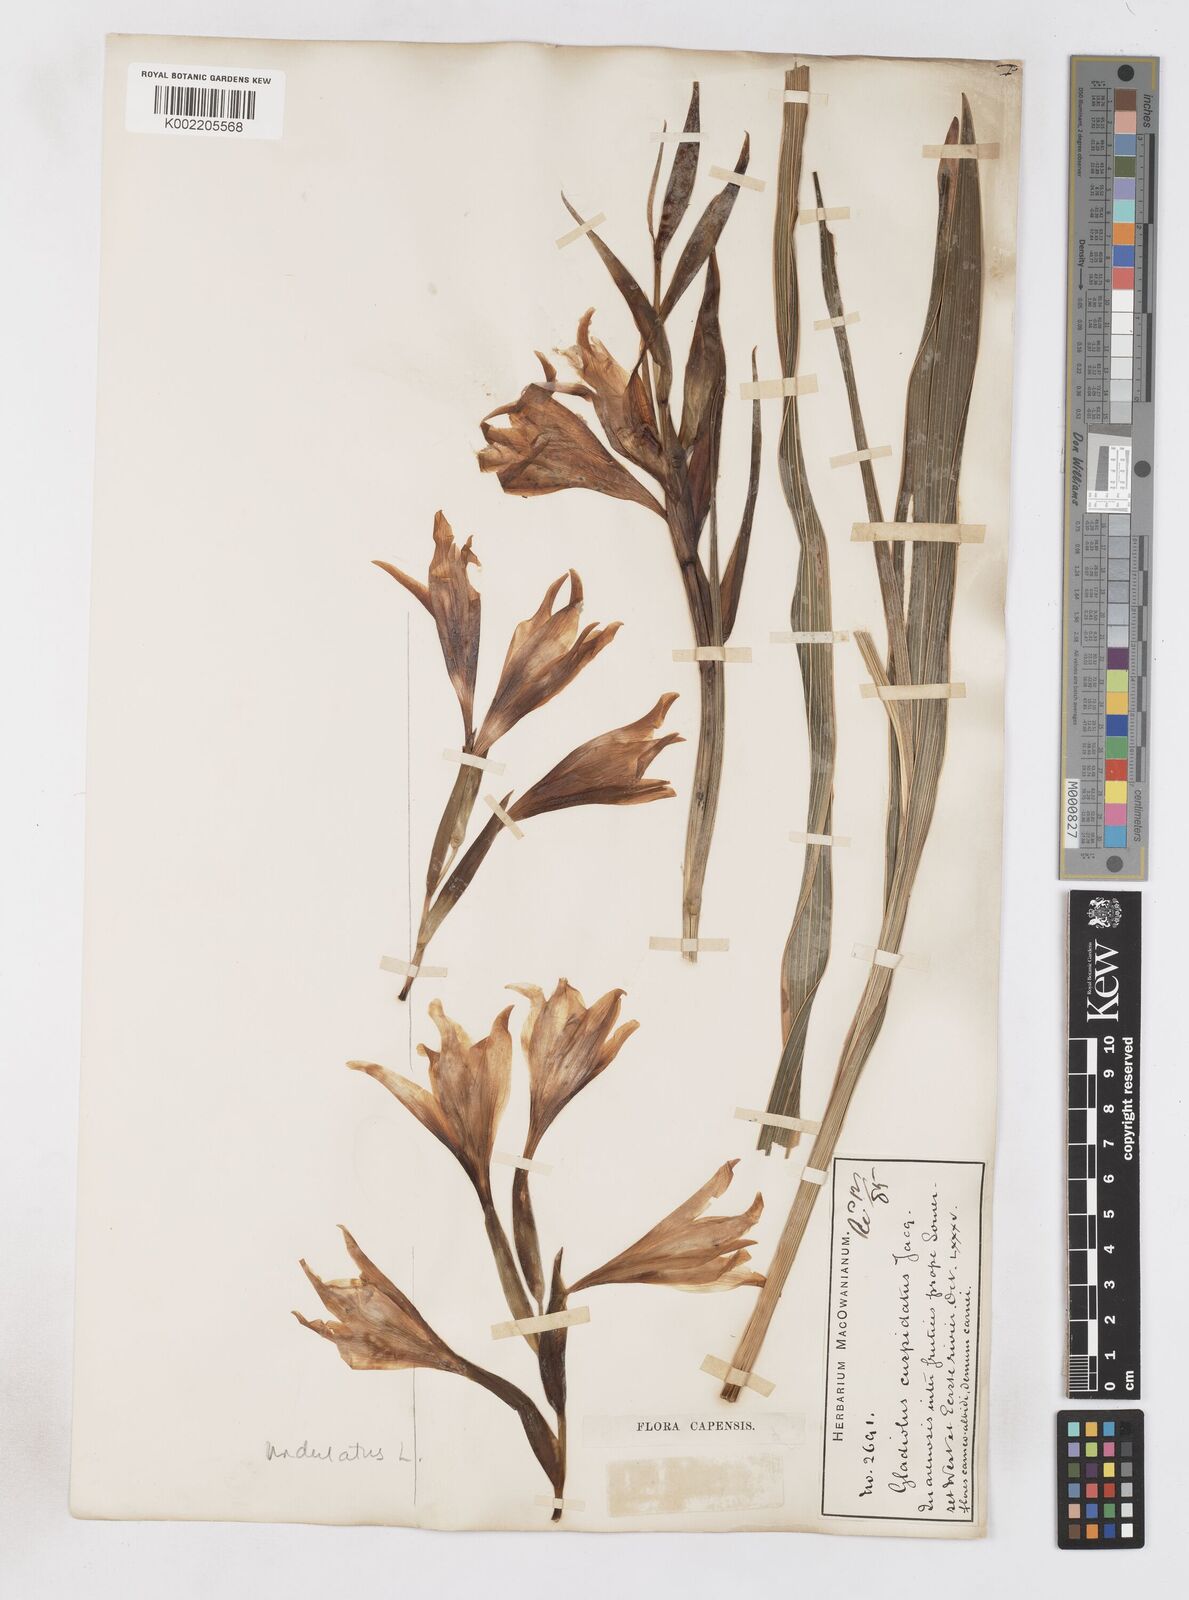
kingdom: Plantae
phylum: Tracheophyta
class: Liliopsida
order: Asparagales
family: Iridaceae
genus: Gladiolus
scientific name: Gladiolus carneus
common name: Painted-lady
